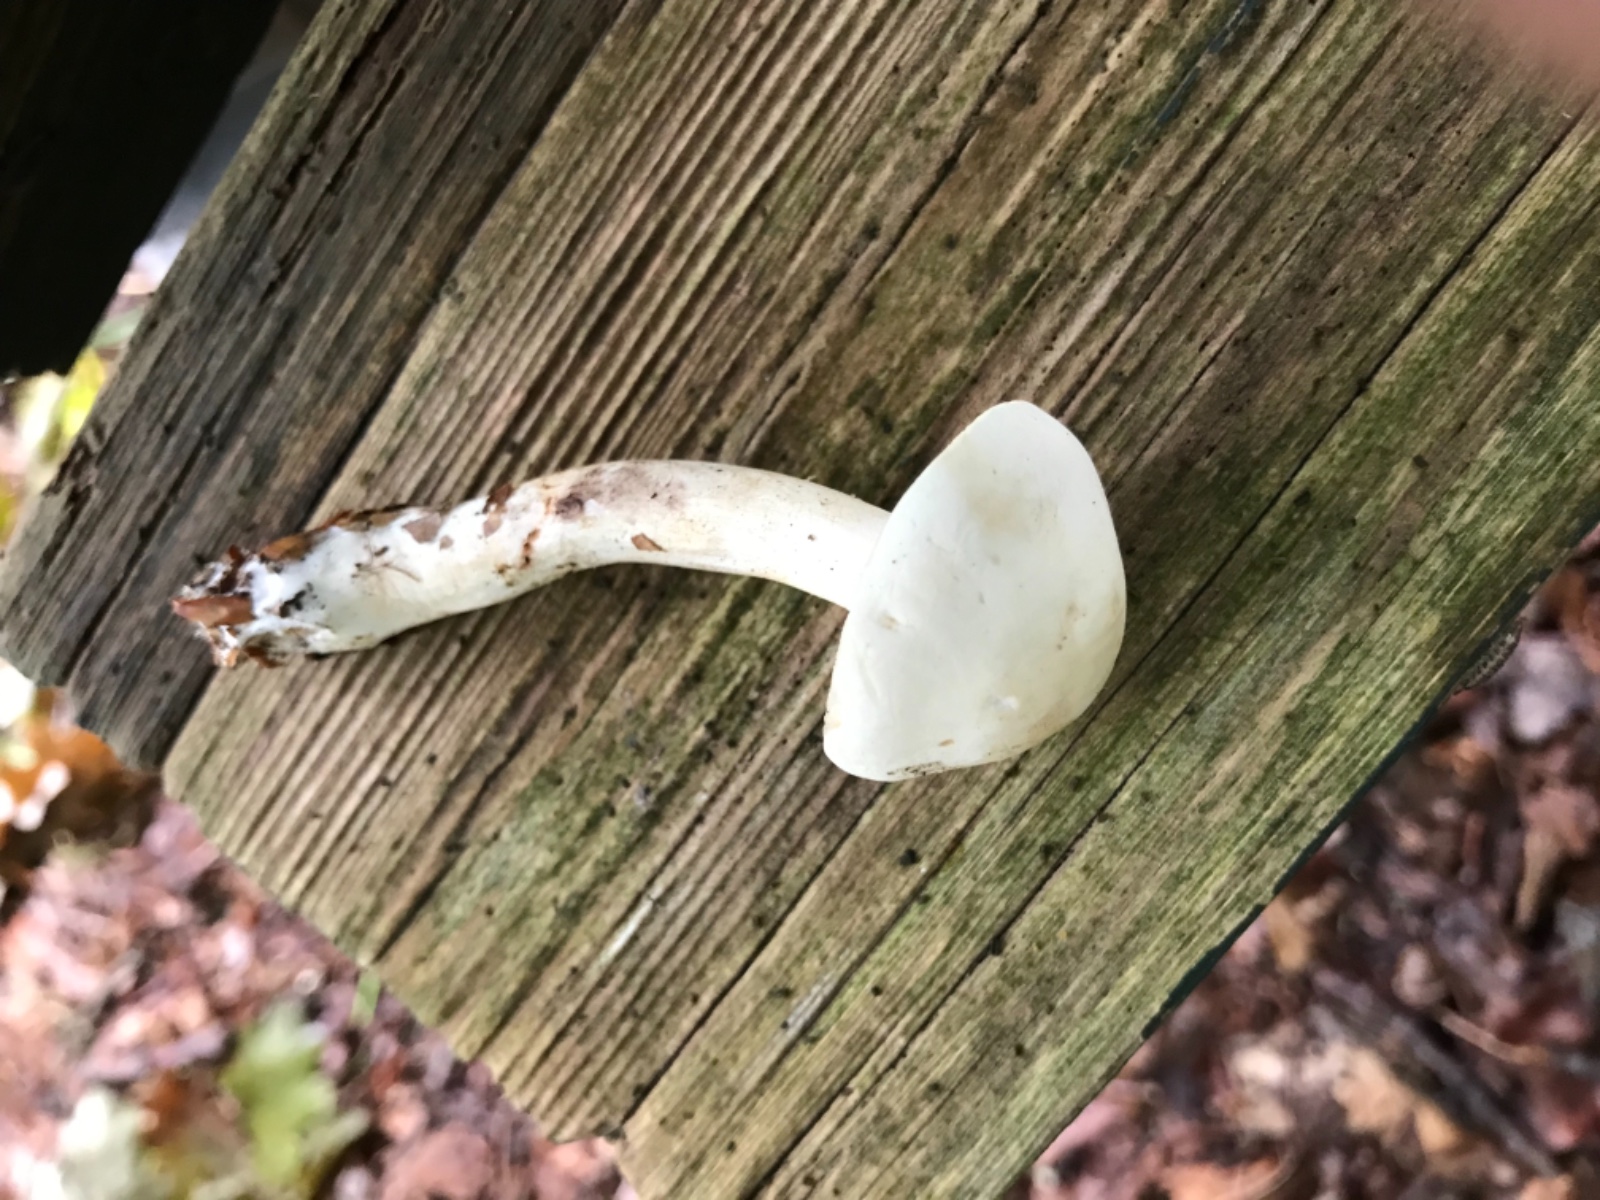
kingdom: Fungi
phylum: Basidiomycota
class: Agaricomycetes
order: Agaricales
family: Tricholomataceae
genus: Tricholoma
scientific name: Tricholoma
